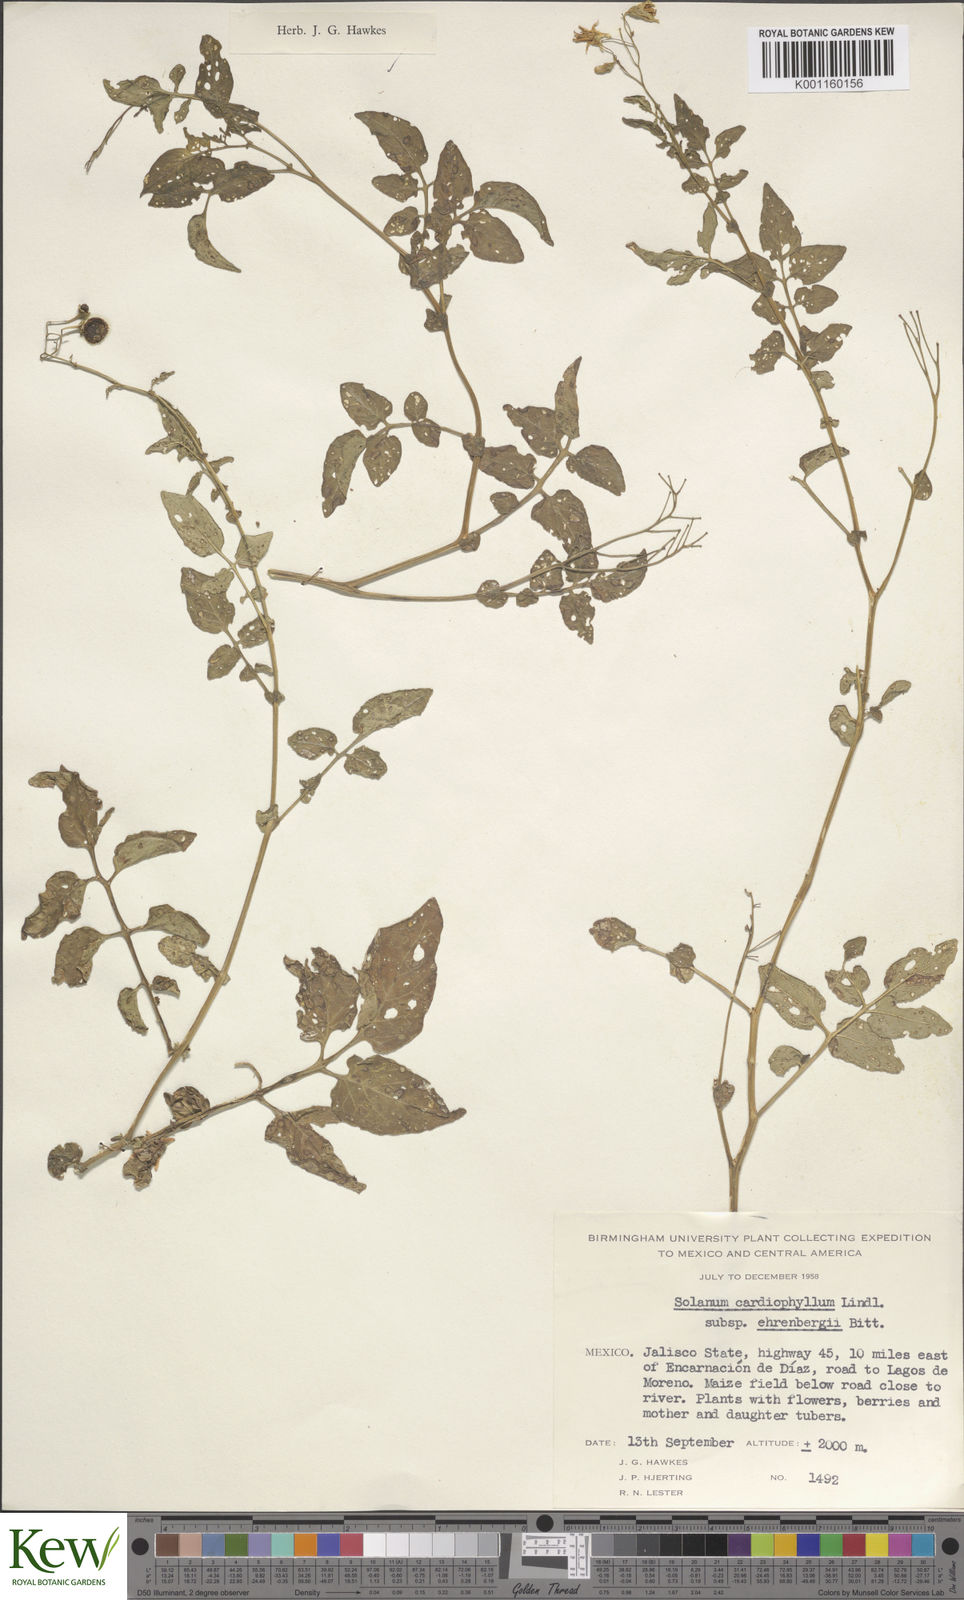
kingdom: Plantae
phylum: Tracheophyta
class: Magnoliopsida
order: Solanales
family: Solanaceae
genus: Solanum
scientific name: Solanum cardiophyllum
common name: Heartleaf horsenettle
